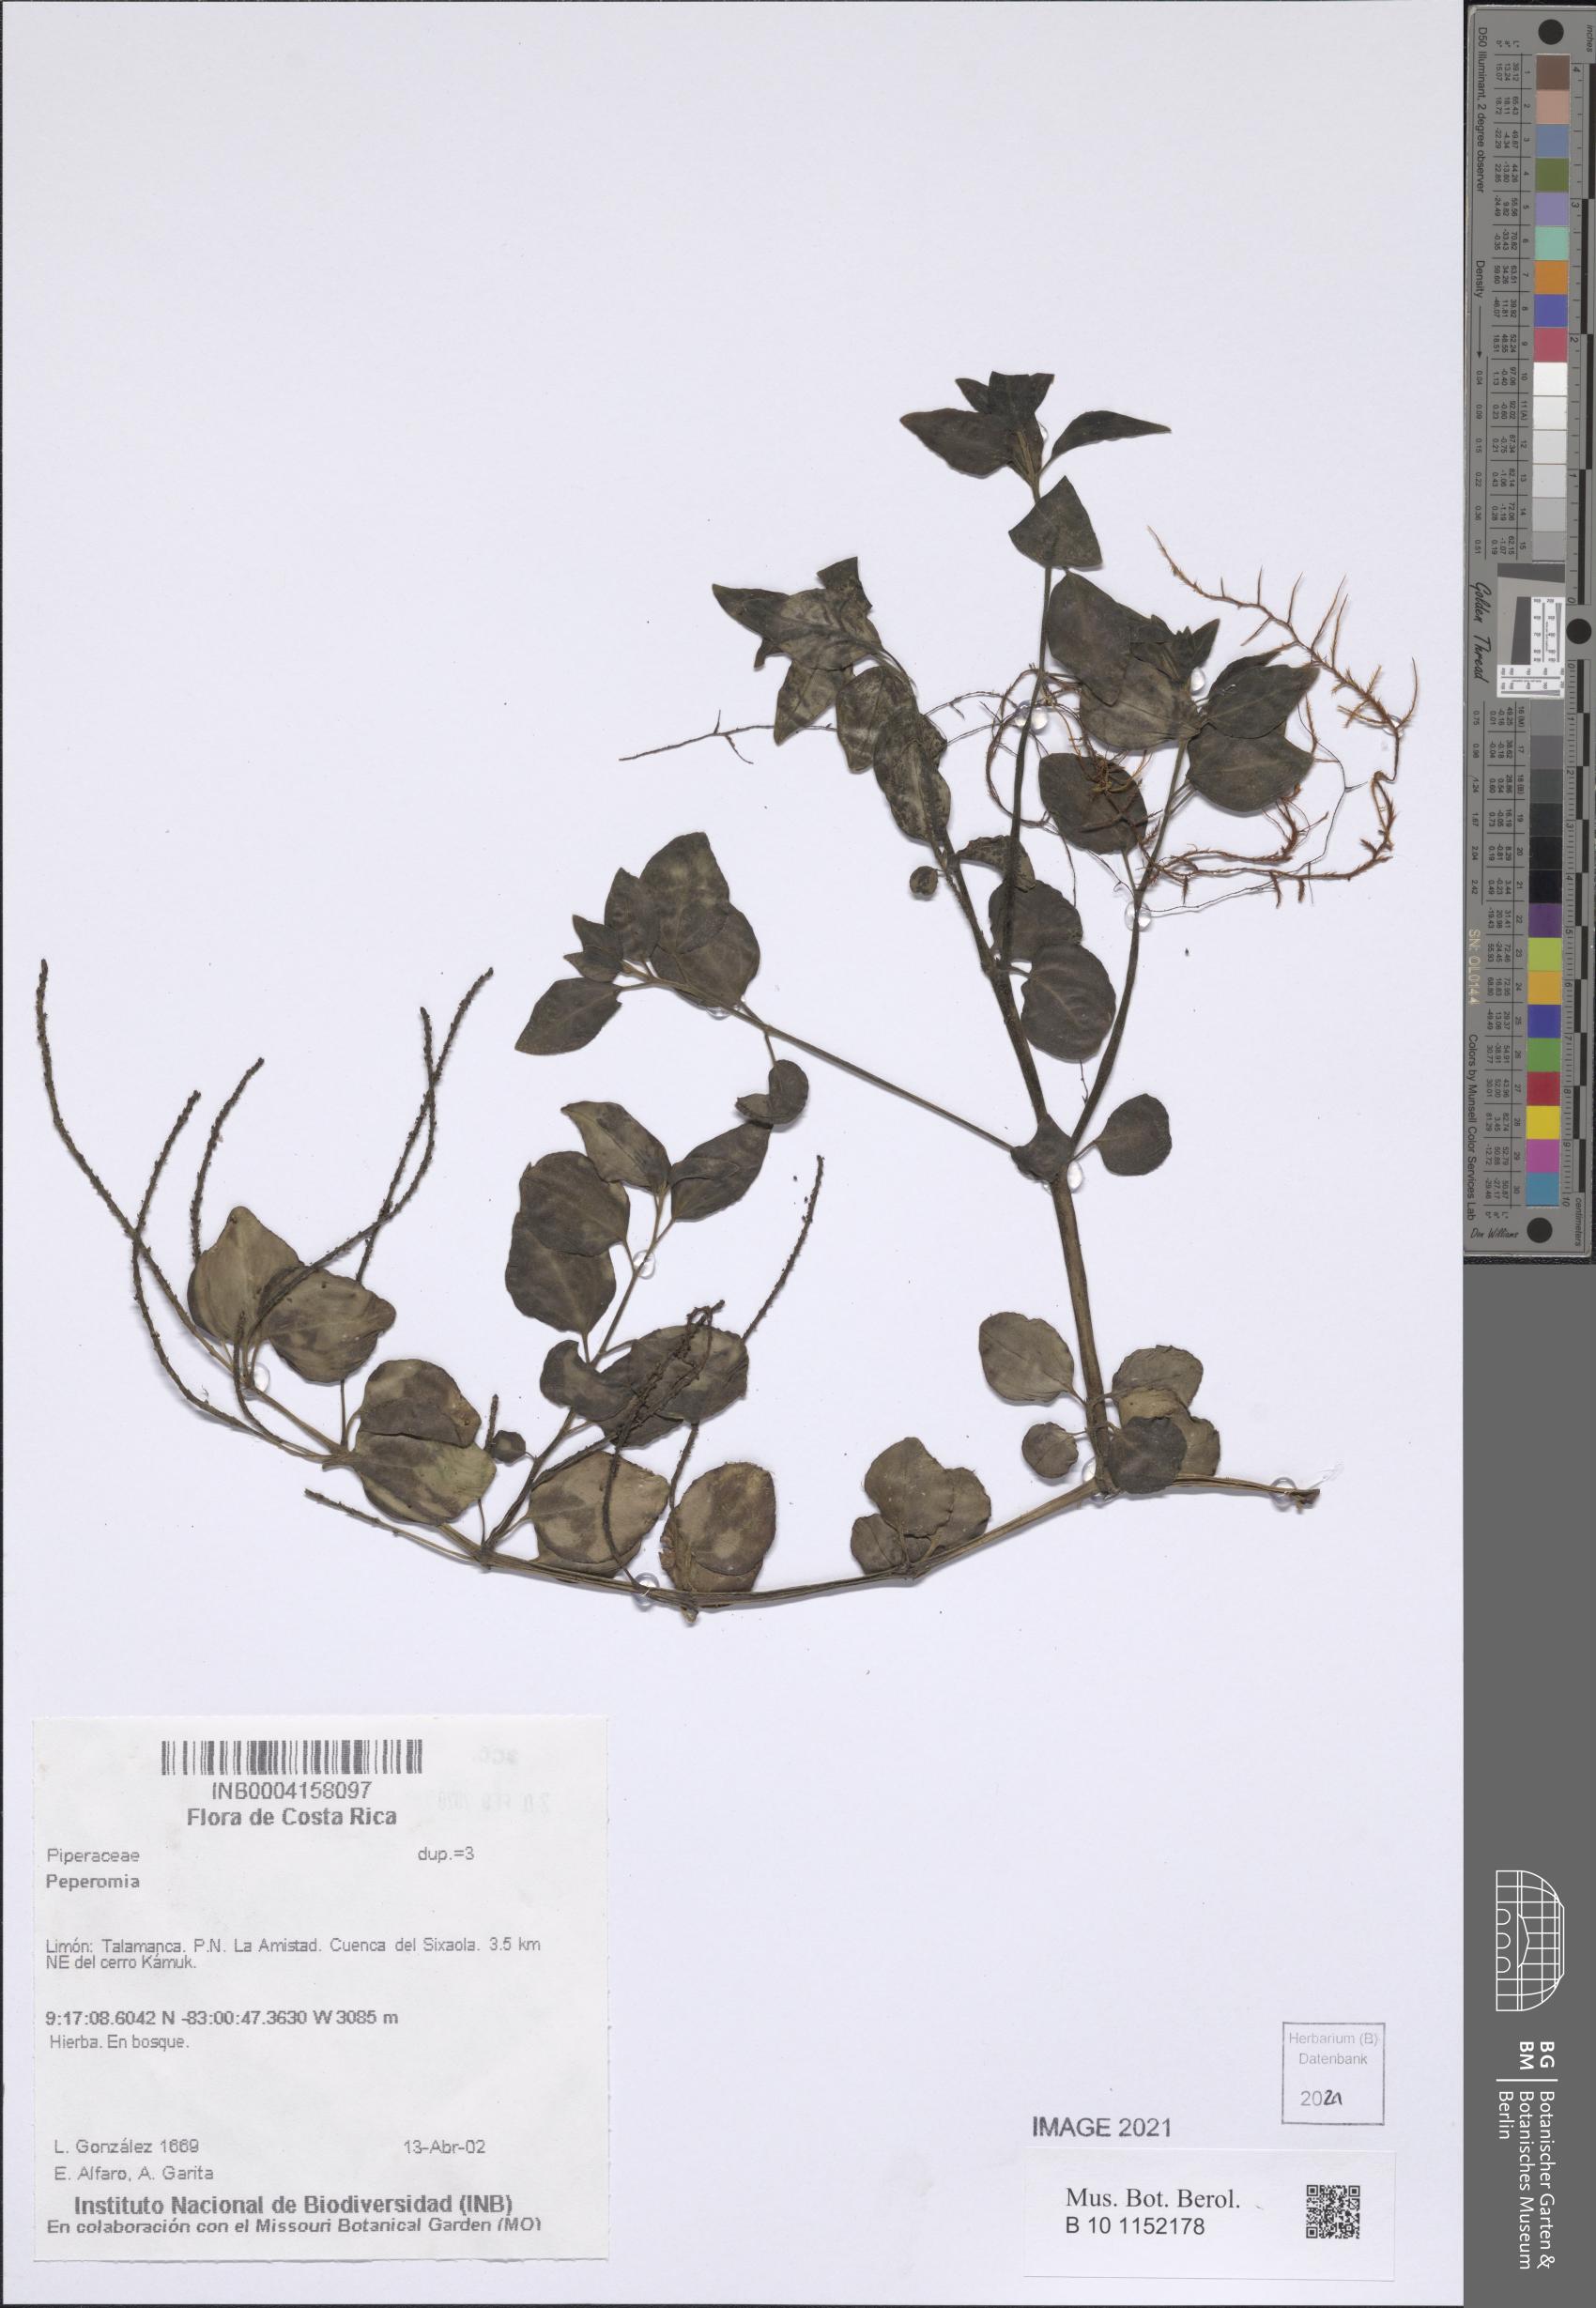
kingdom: Plantae
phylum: Tracheophyta
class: Magnoliopsida
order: Piperales
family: Piperaceae
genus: Peperomia
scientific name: Peperomia
